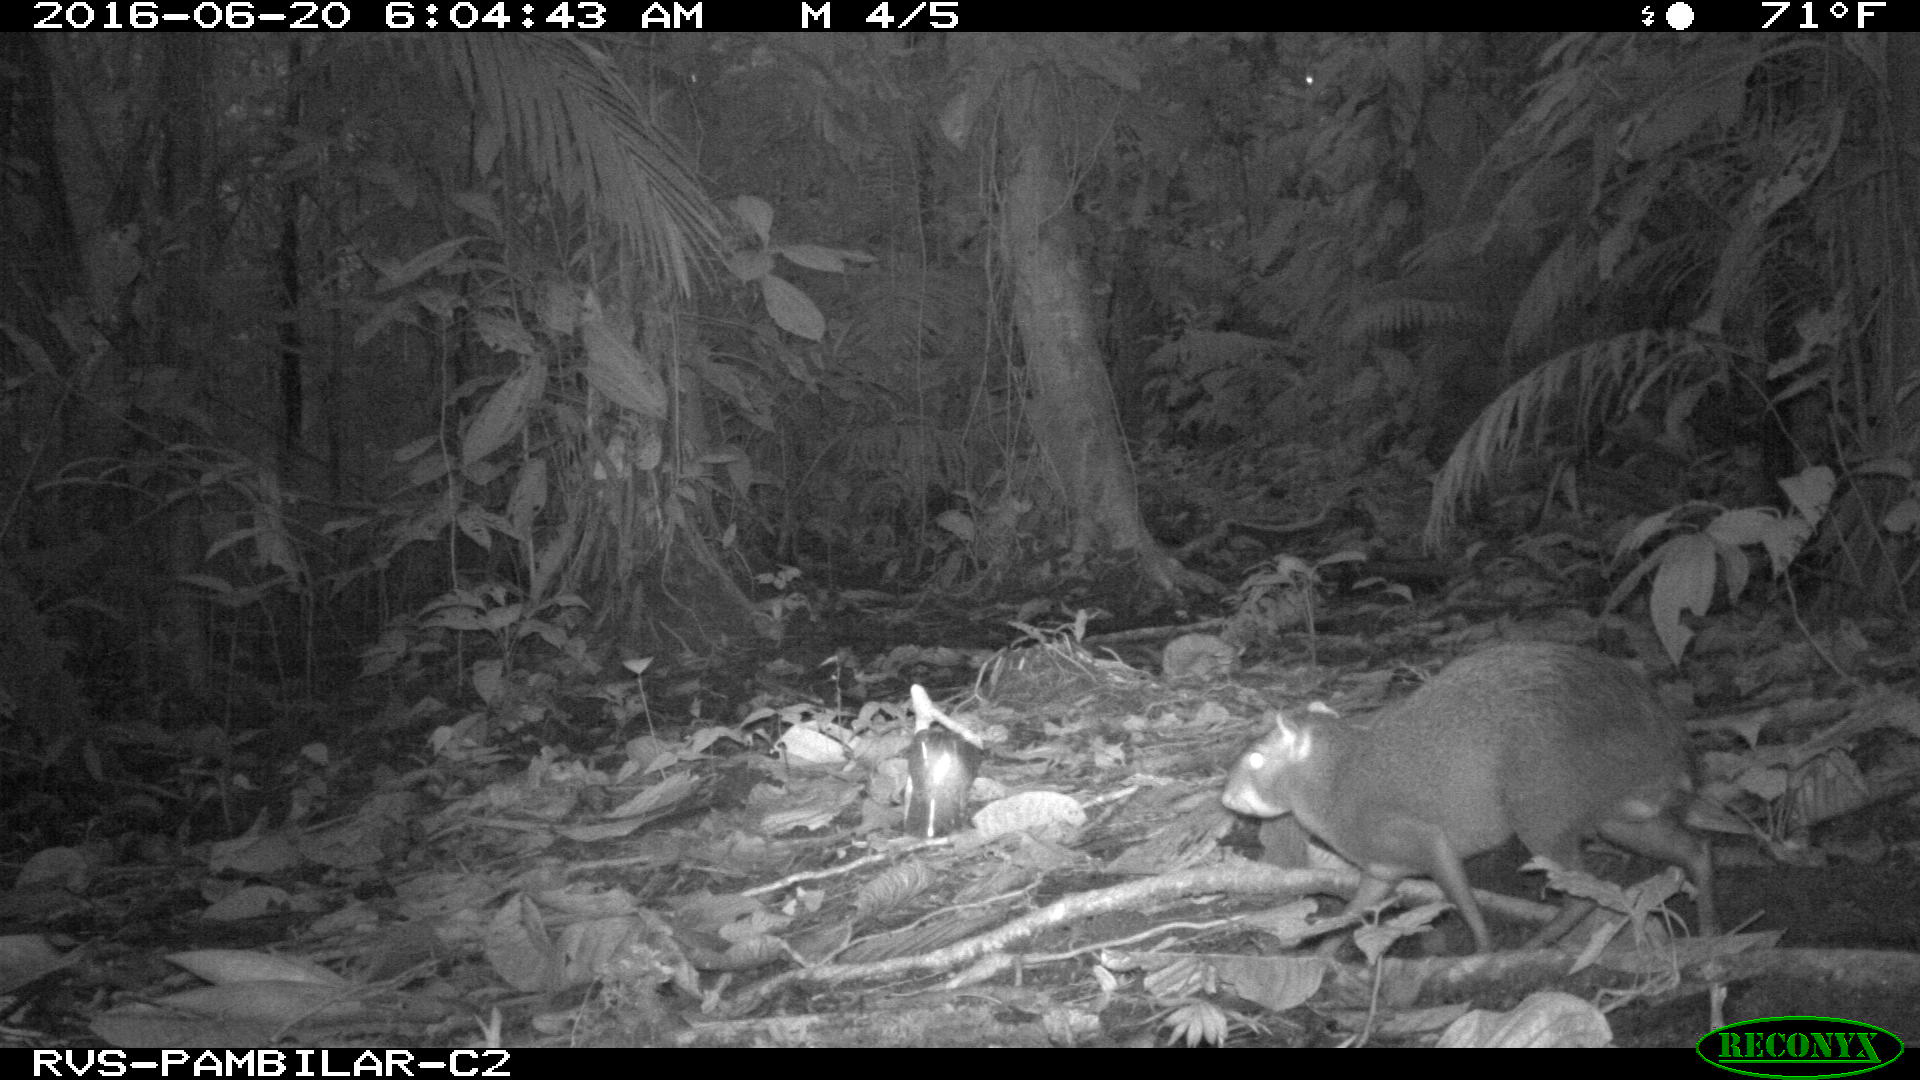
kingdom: Animalia
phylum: Chordata
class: Mammalia
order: Rodentia
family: Dasyproctidae
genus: Dasyprocta
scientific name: Dasyprocta punctata
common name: Central american agouti
